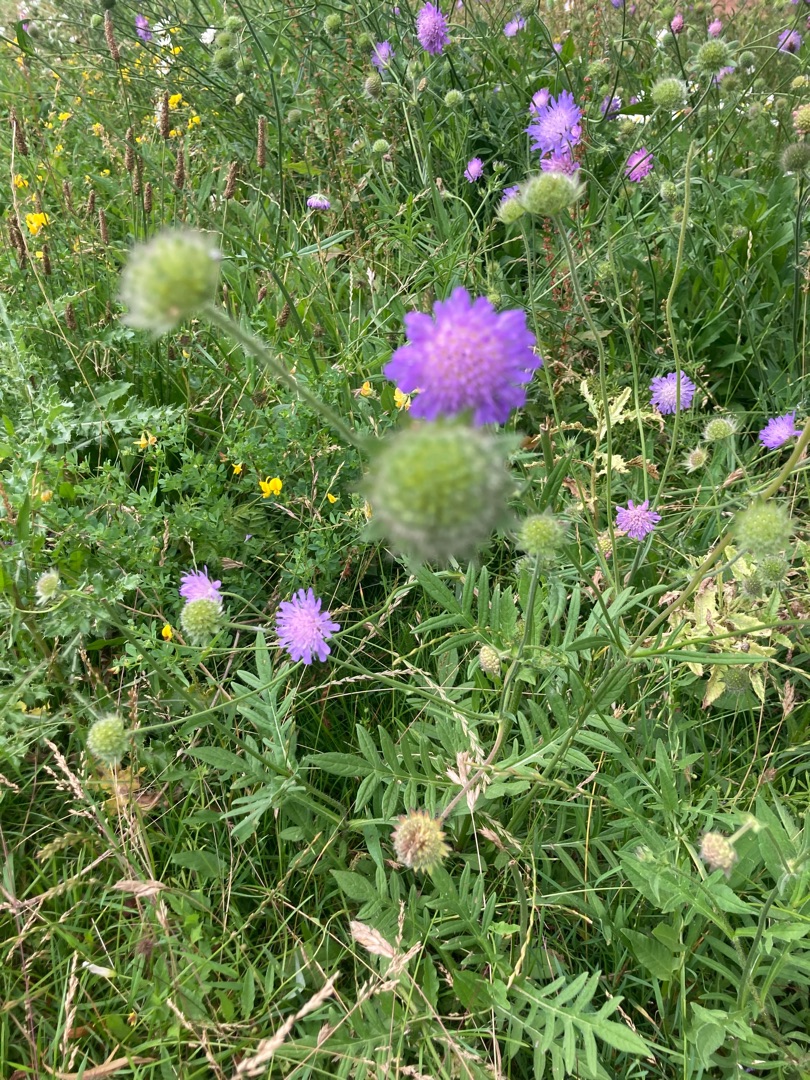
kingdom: Plantae
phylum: Tracheophyta
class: Magnoliopsida
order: Dipsacales
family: Caprifoliaceae
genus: Knautia
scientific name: Knautia arvensis
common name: Blåhat
